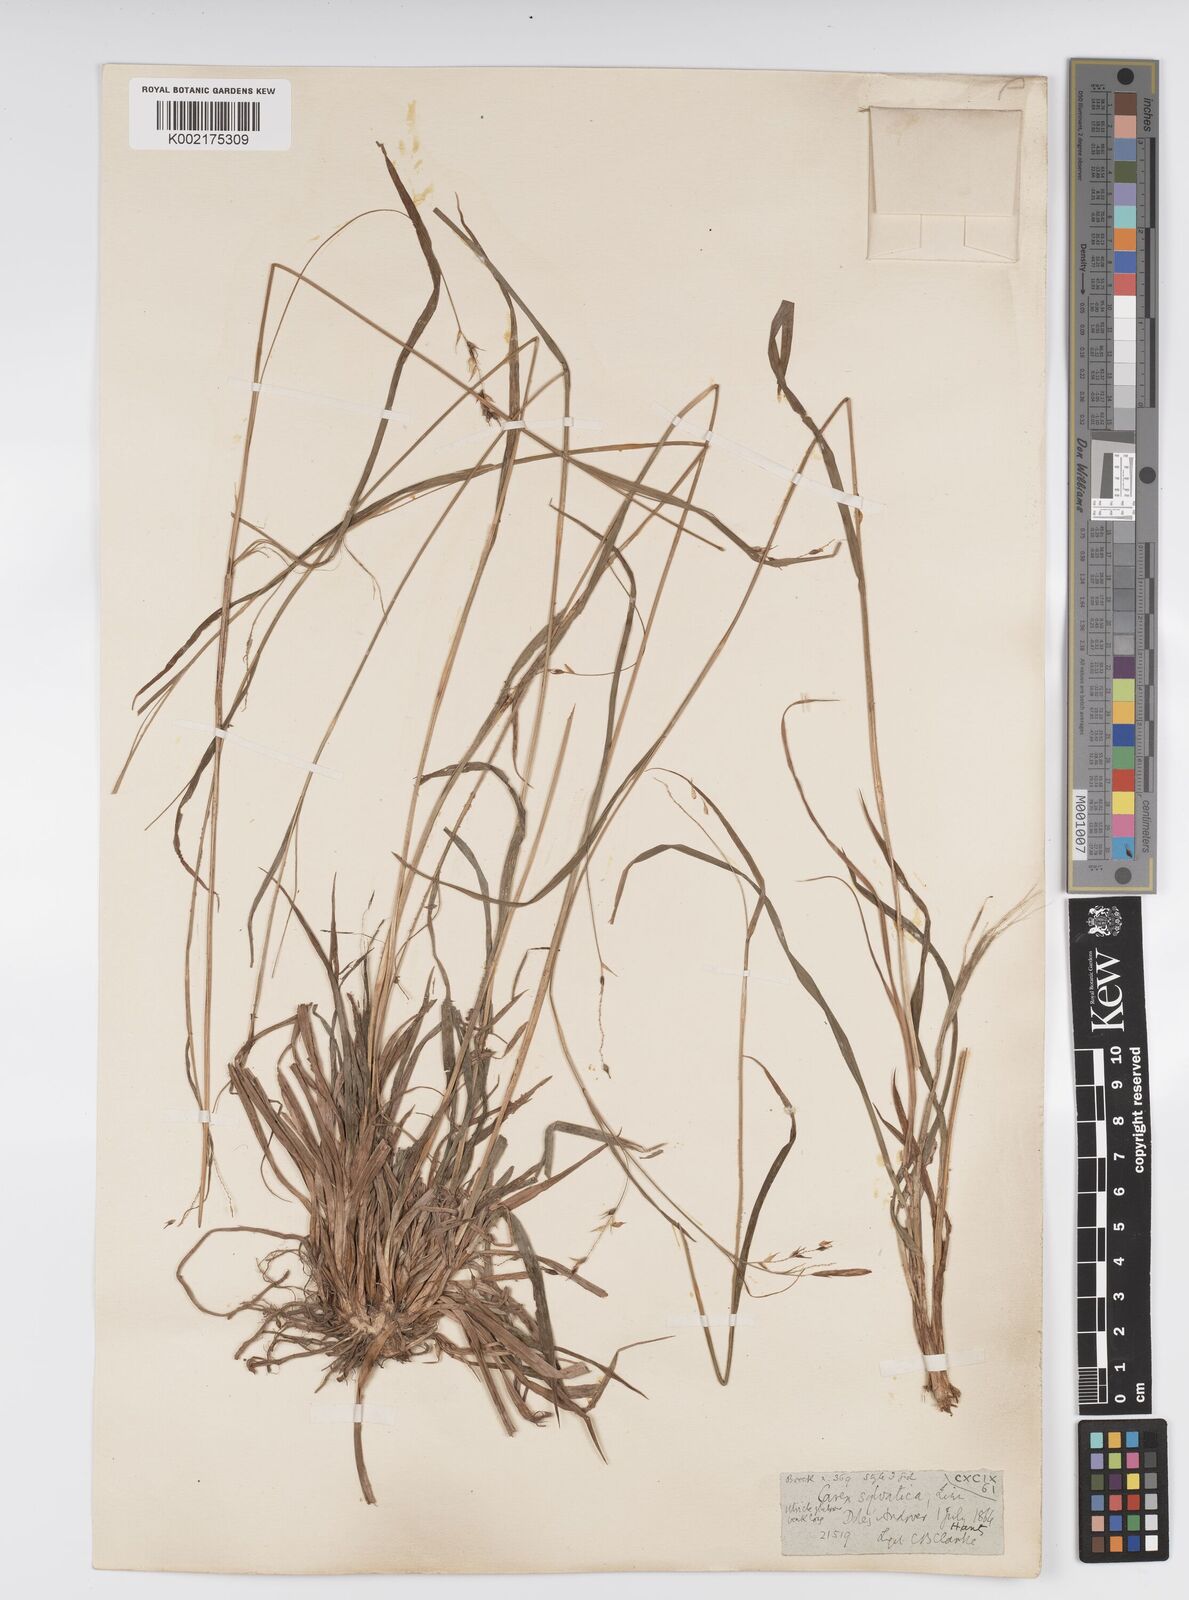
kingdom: Plantae
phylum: Tracheophyta
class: Liliopsida
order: Poales
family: Cyperaceae
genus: Carex
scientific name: Carex sylvatica
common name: Wood-sedge
